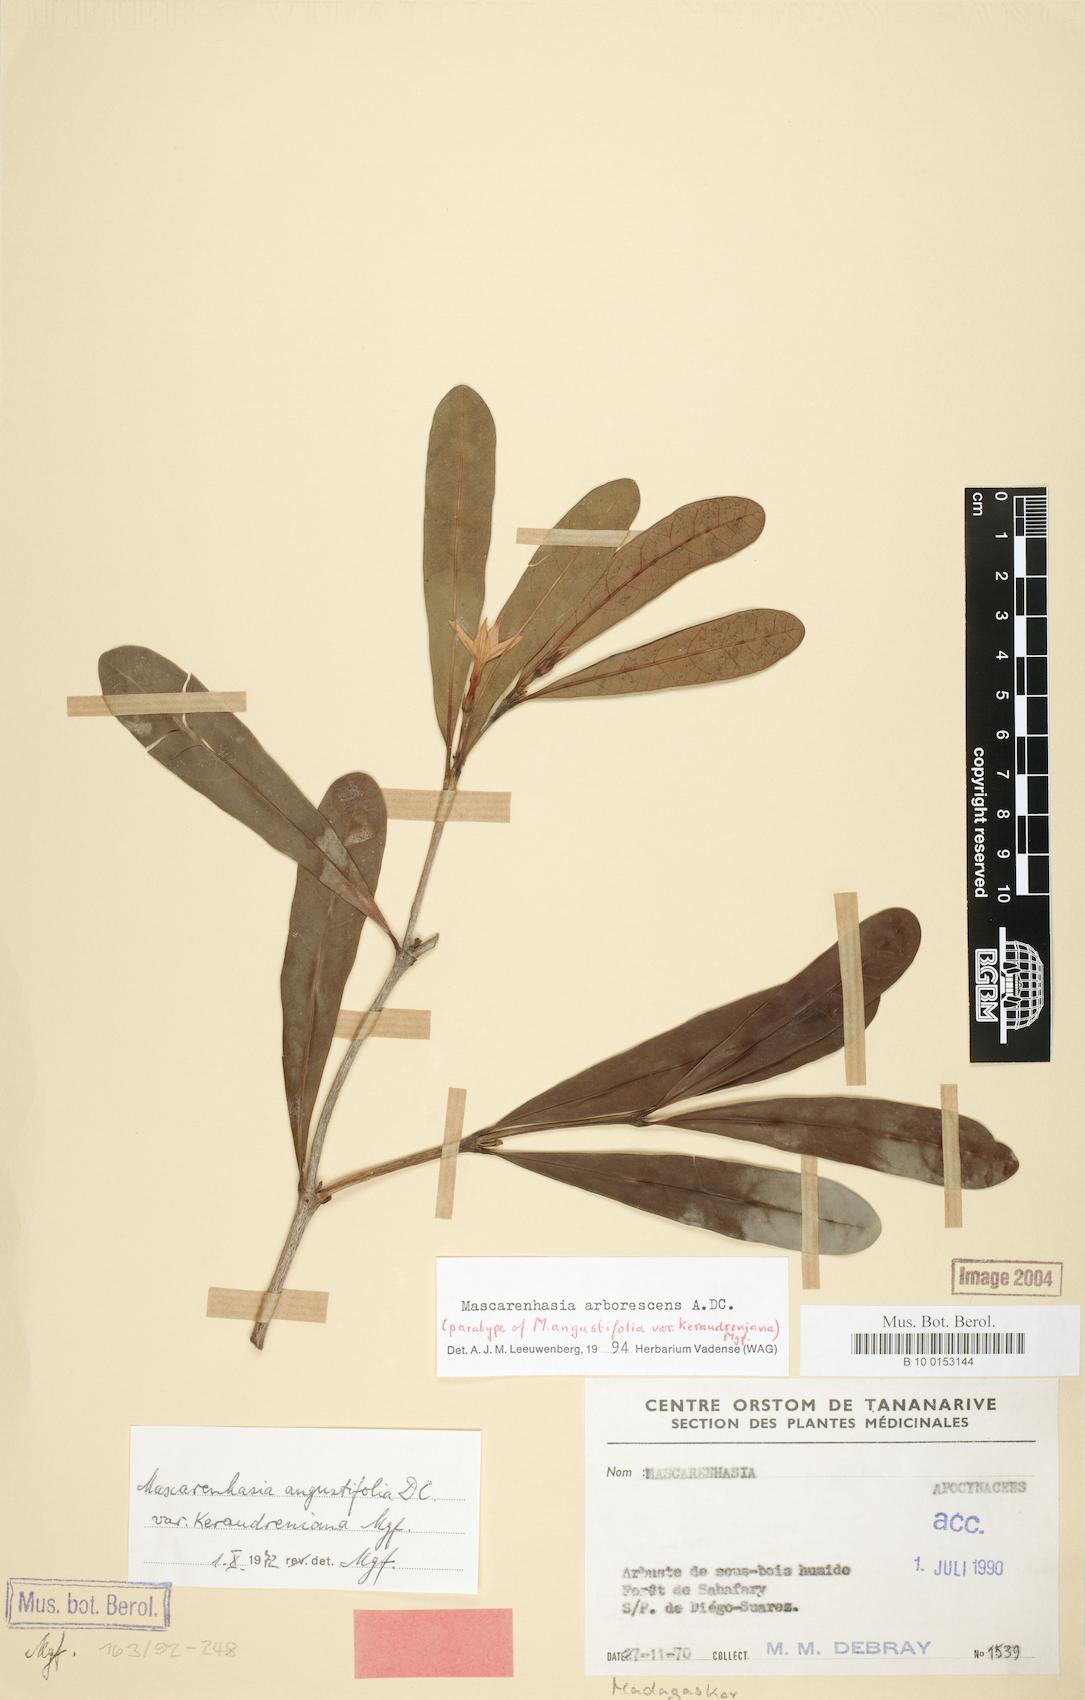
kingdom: Plantae
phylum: Tracheophyta
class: Magnoliopsida
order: Gentianales
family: Apocynaceae
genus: Mascarenhasia
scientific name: Mascarenhasia arborescens
